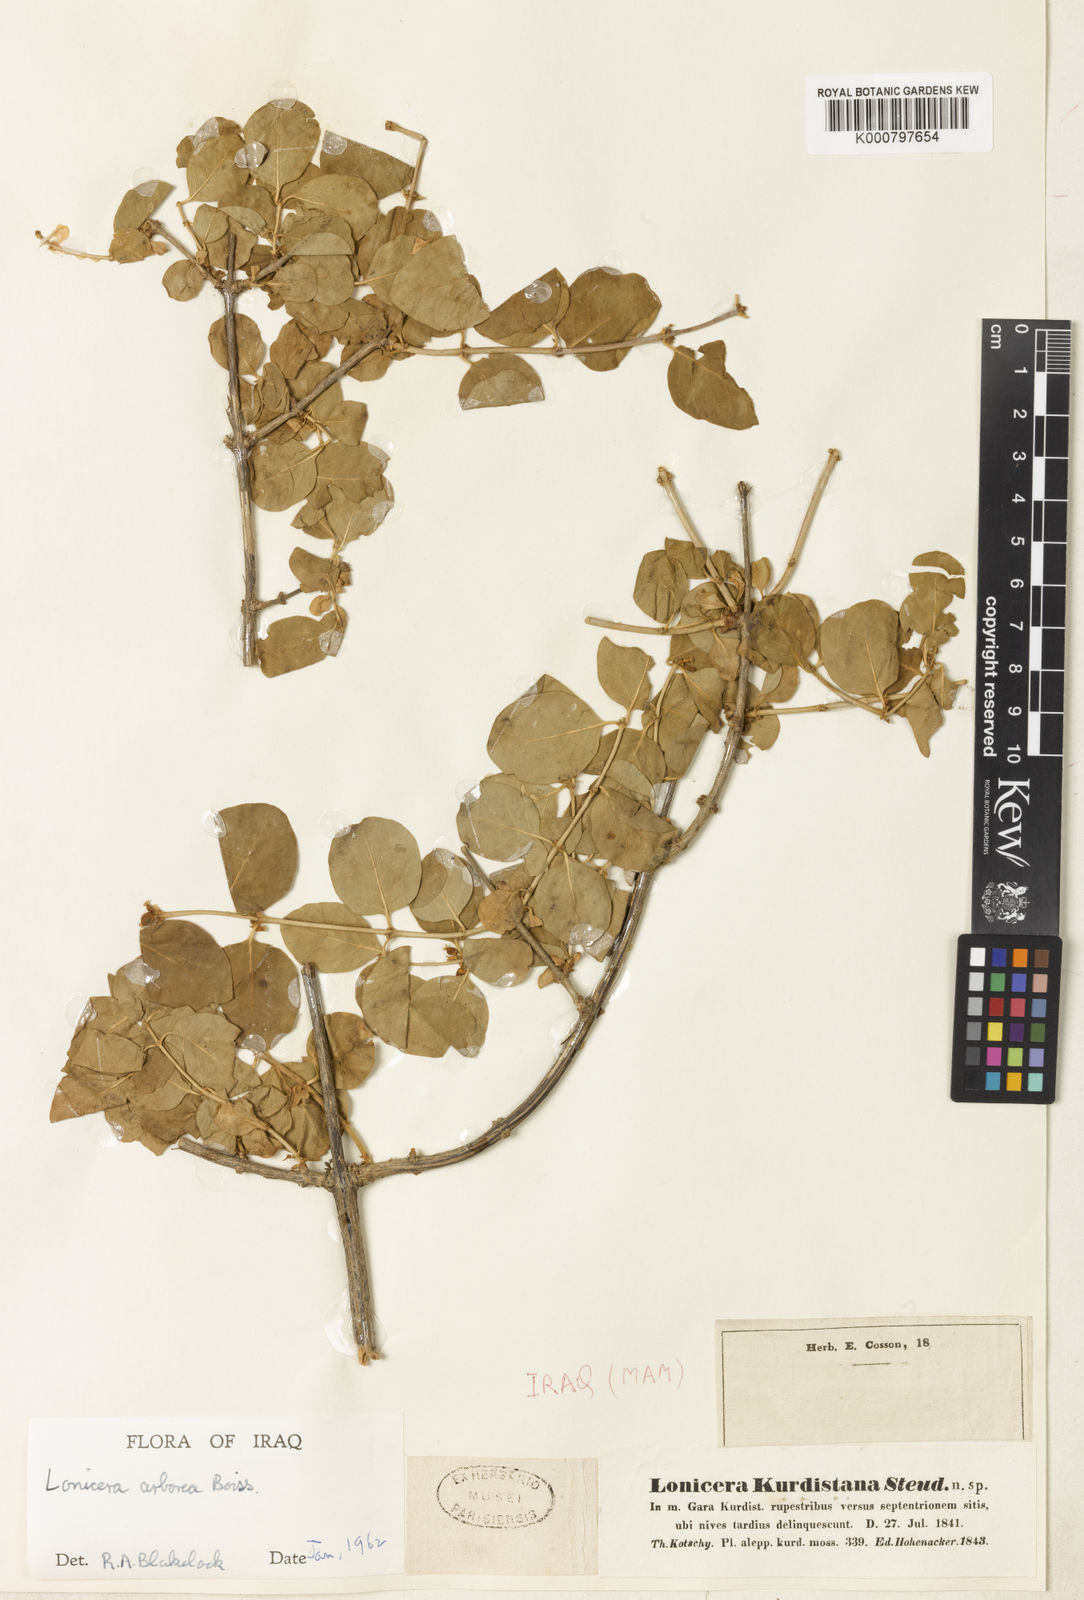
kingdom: Plantae
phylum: Tracheophyta
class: Magnoliopsida
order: Dipsacales
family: Caprifoliaceae
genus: Lonicera
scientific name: Lonicera arborea
